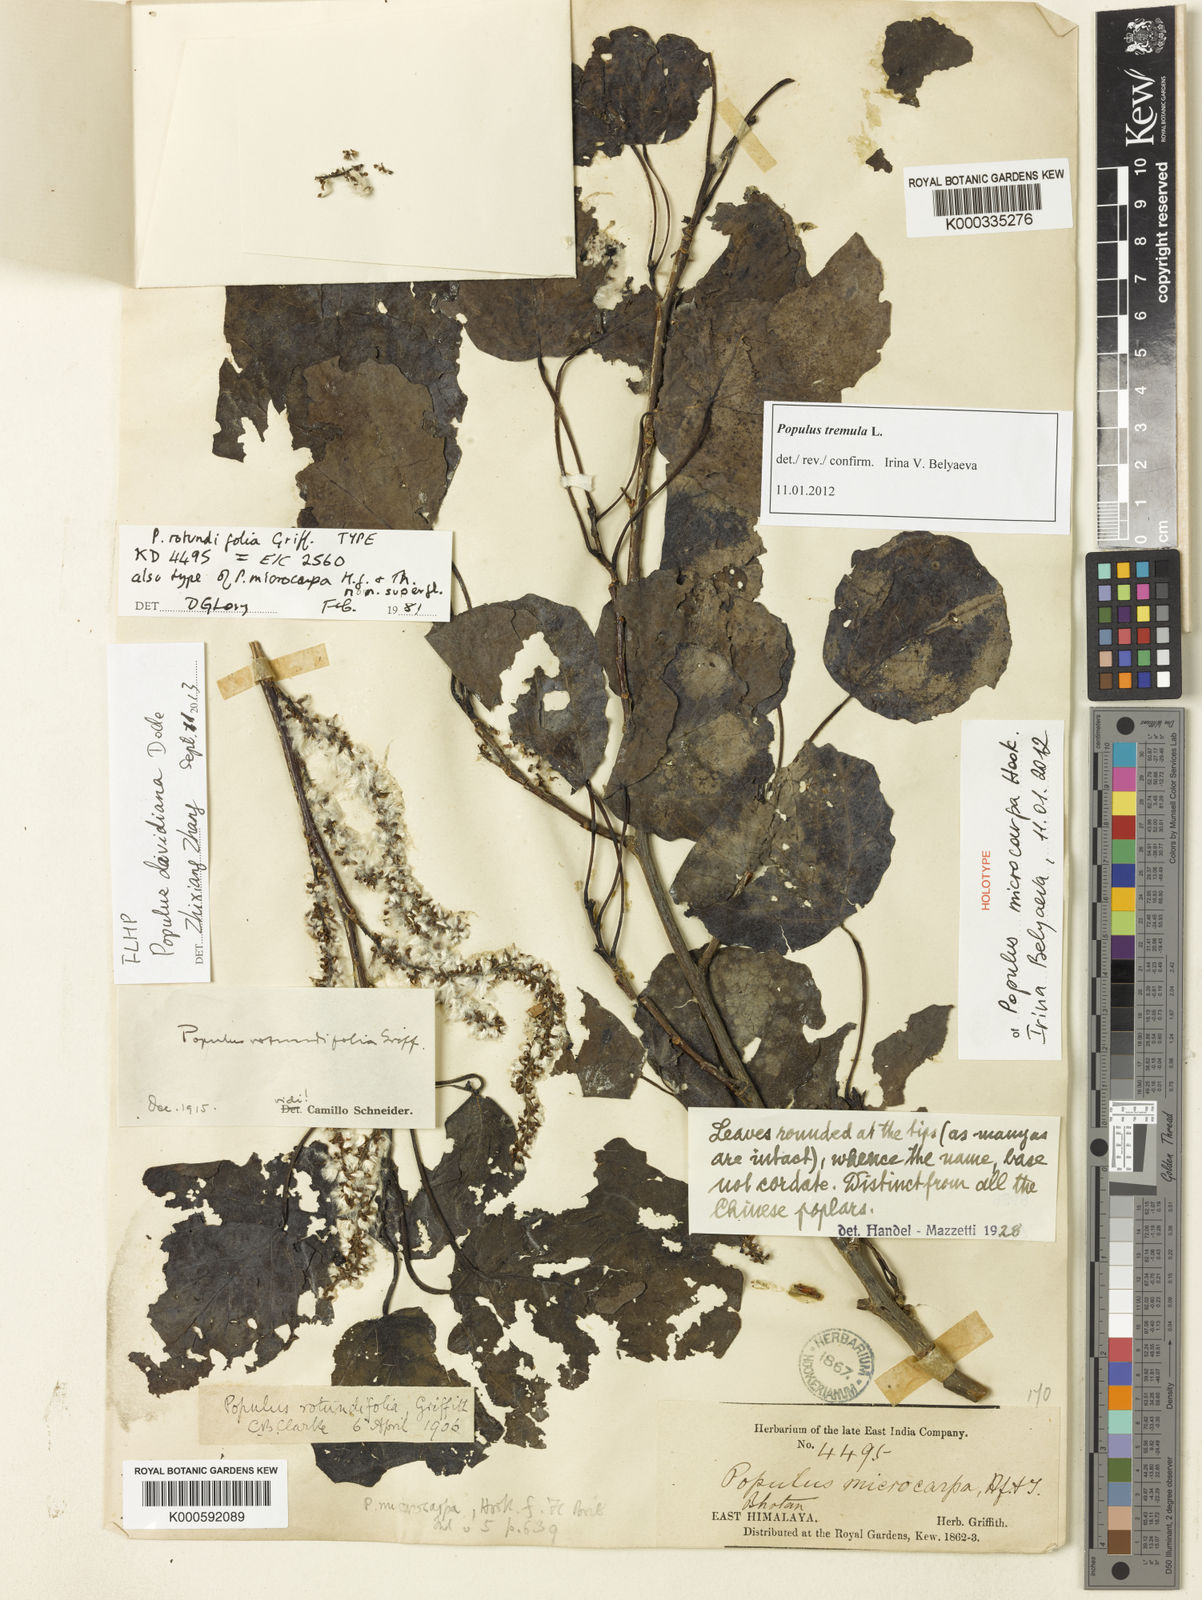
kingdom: Plantae
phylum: Tracheophyta
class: Magnoliopsida
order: Malpighiales
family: Salicaceae
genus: Populus
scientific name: Populus rotundifolia
